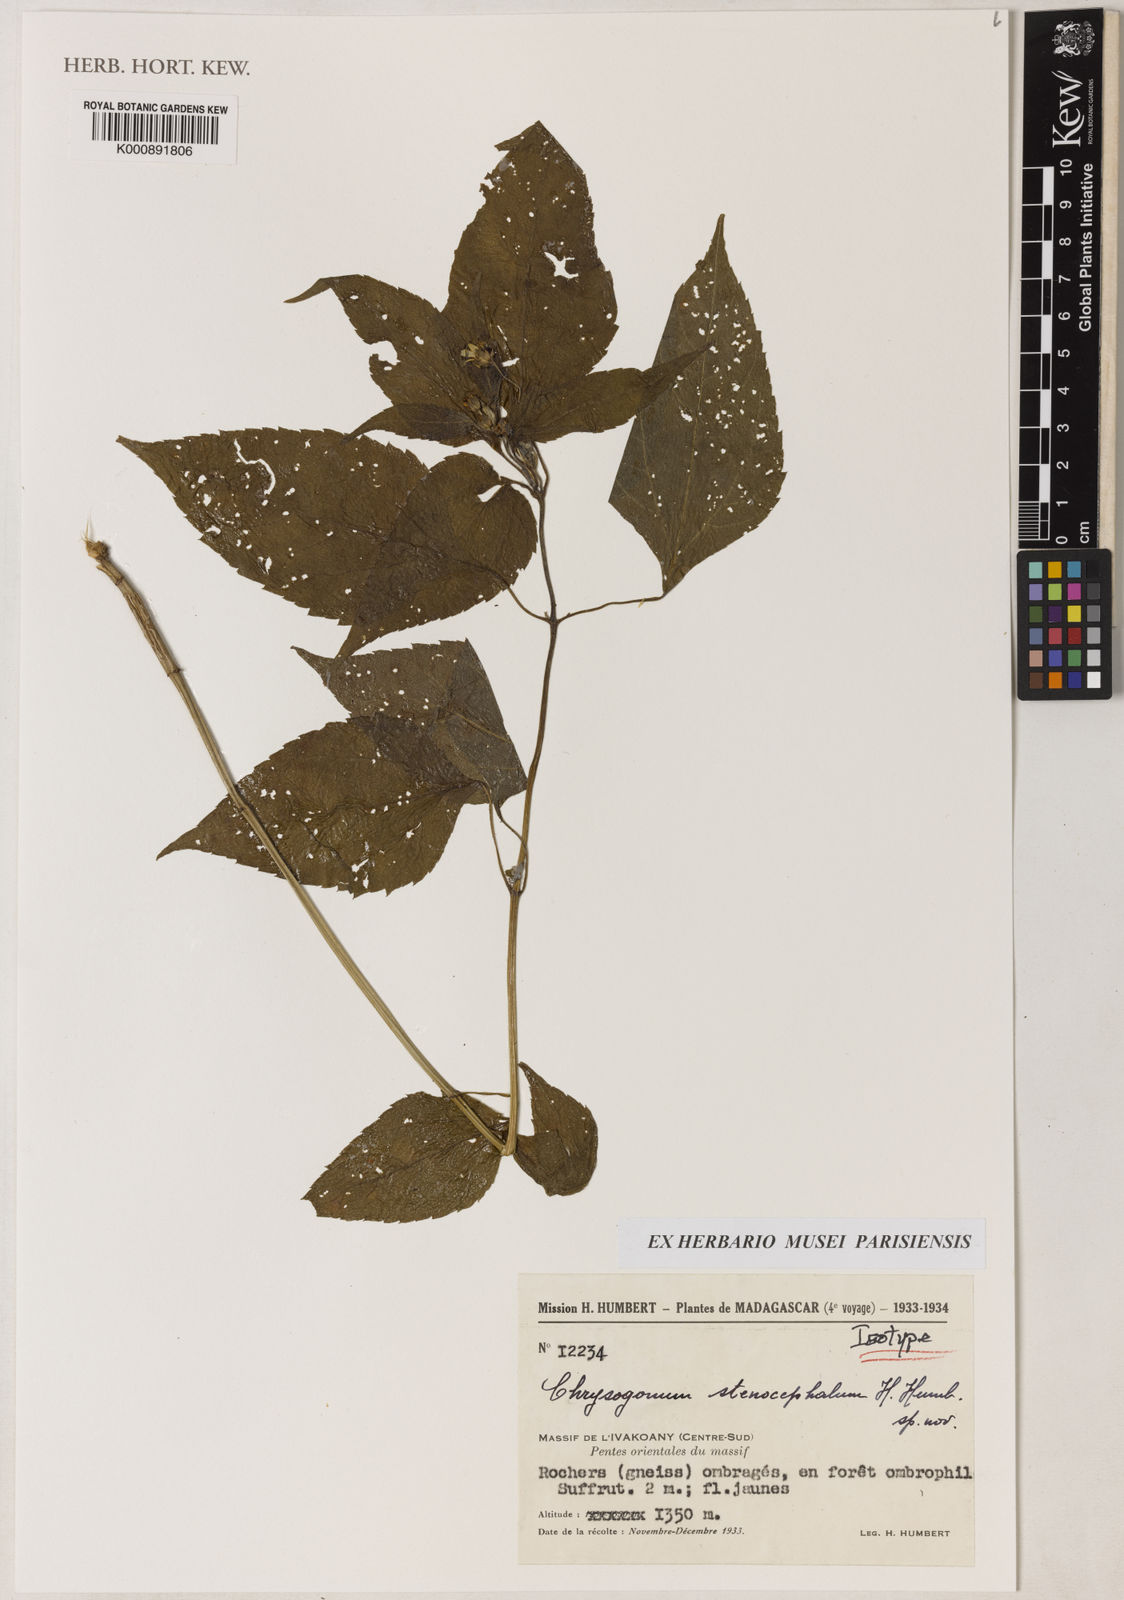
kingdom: Plantae
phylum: Tracheophyta
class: Magnoliopsida
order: Asterales
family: Asteraceae
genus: Aspilia
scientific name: Aspilia stenocephala
